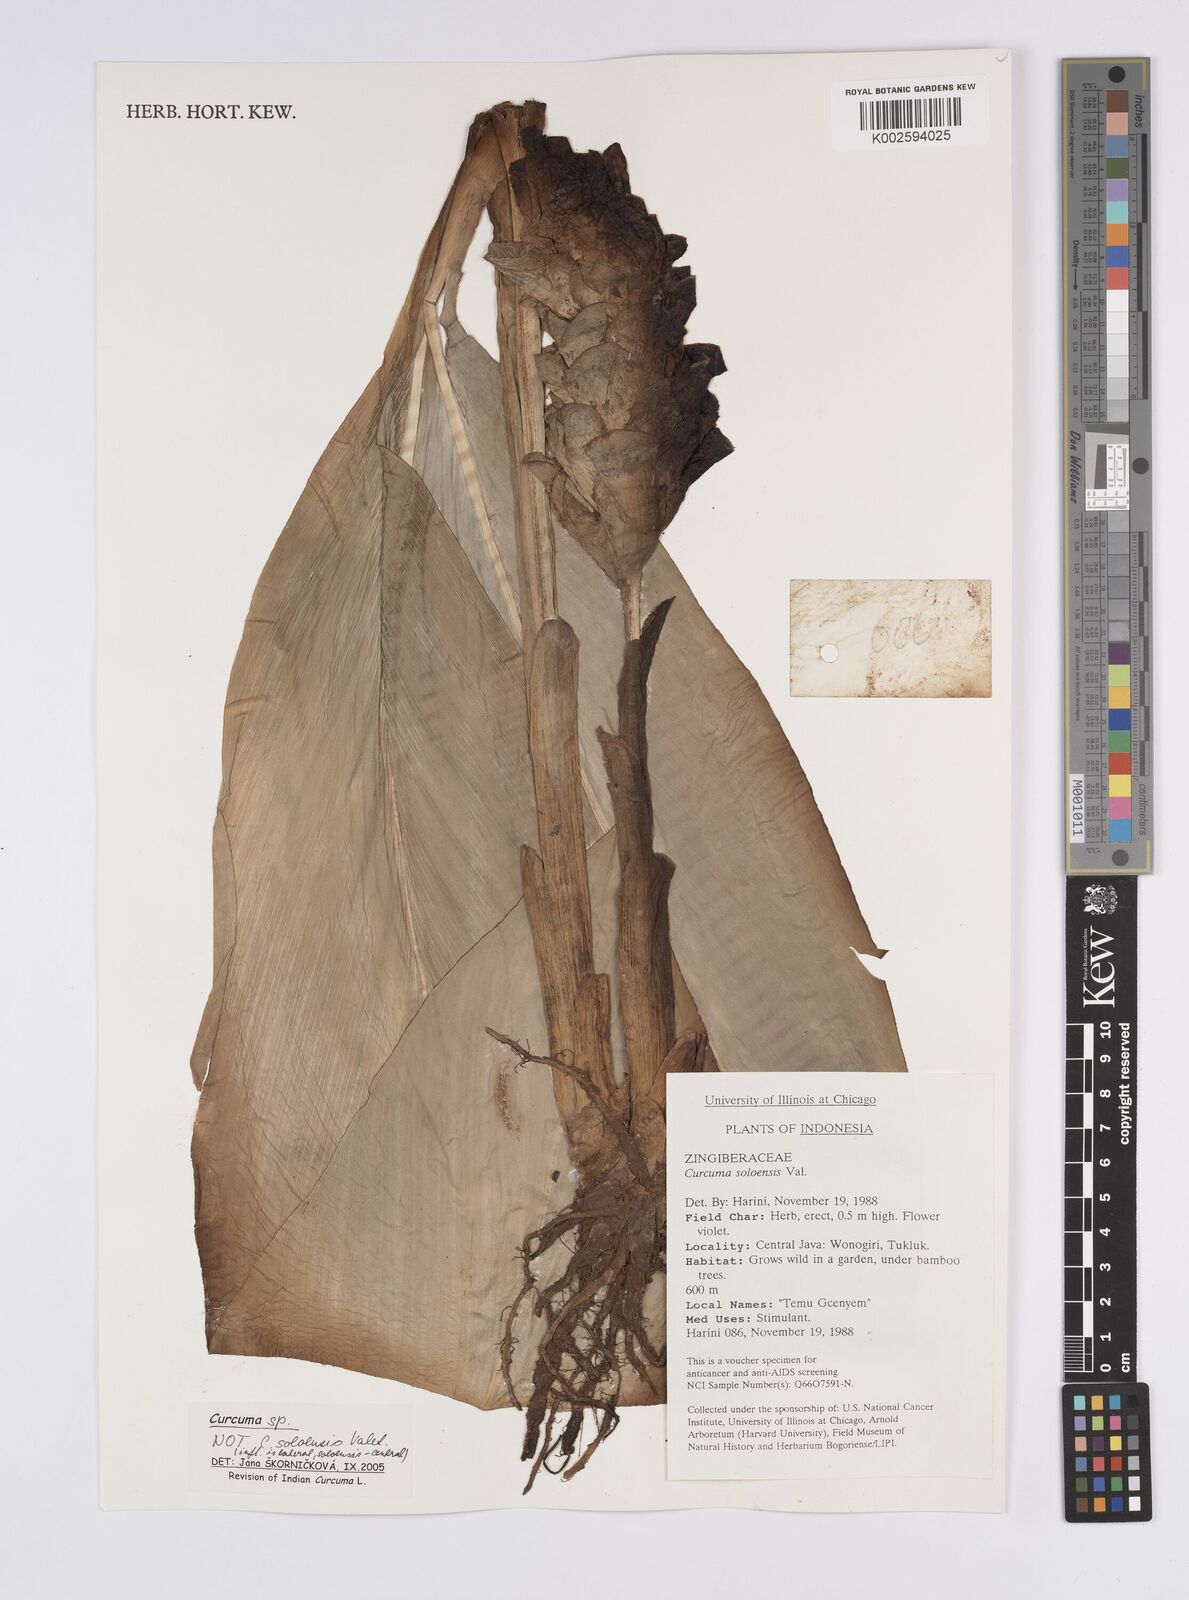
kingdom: Plantae
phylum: Tracheophyta
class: Liliopsida
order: Zingiberales
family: Zingiberaceae
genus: Curcuma
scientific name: Curcuma
